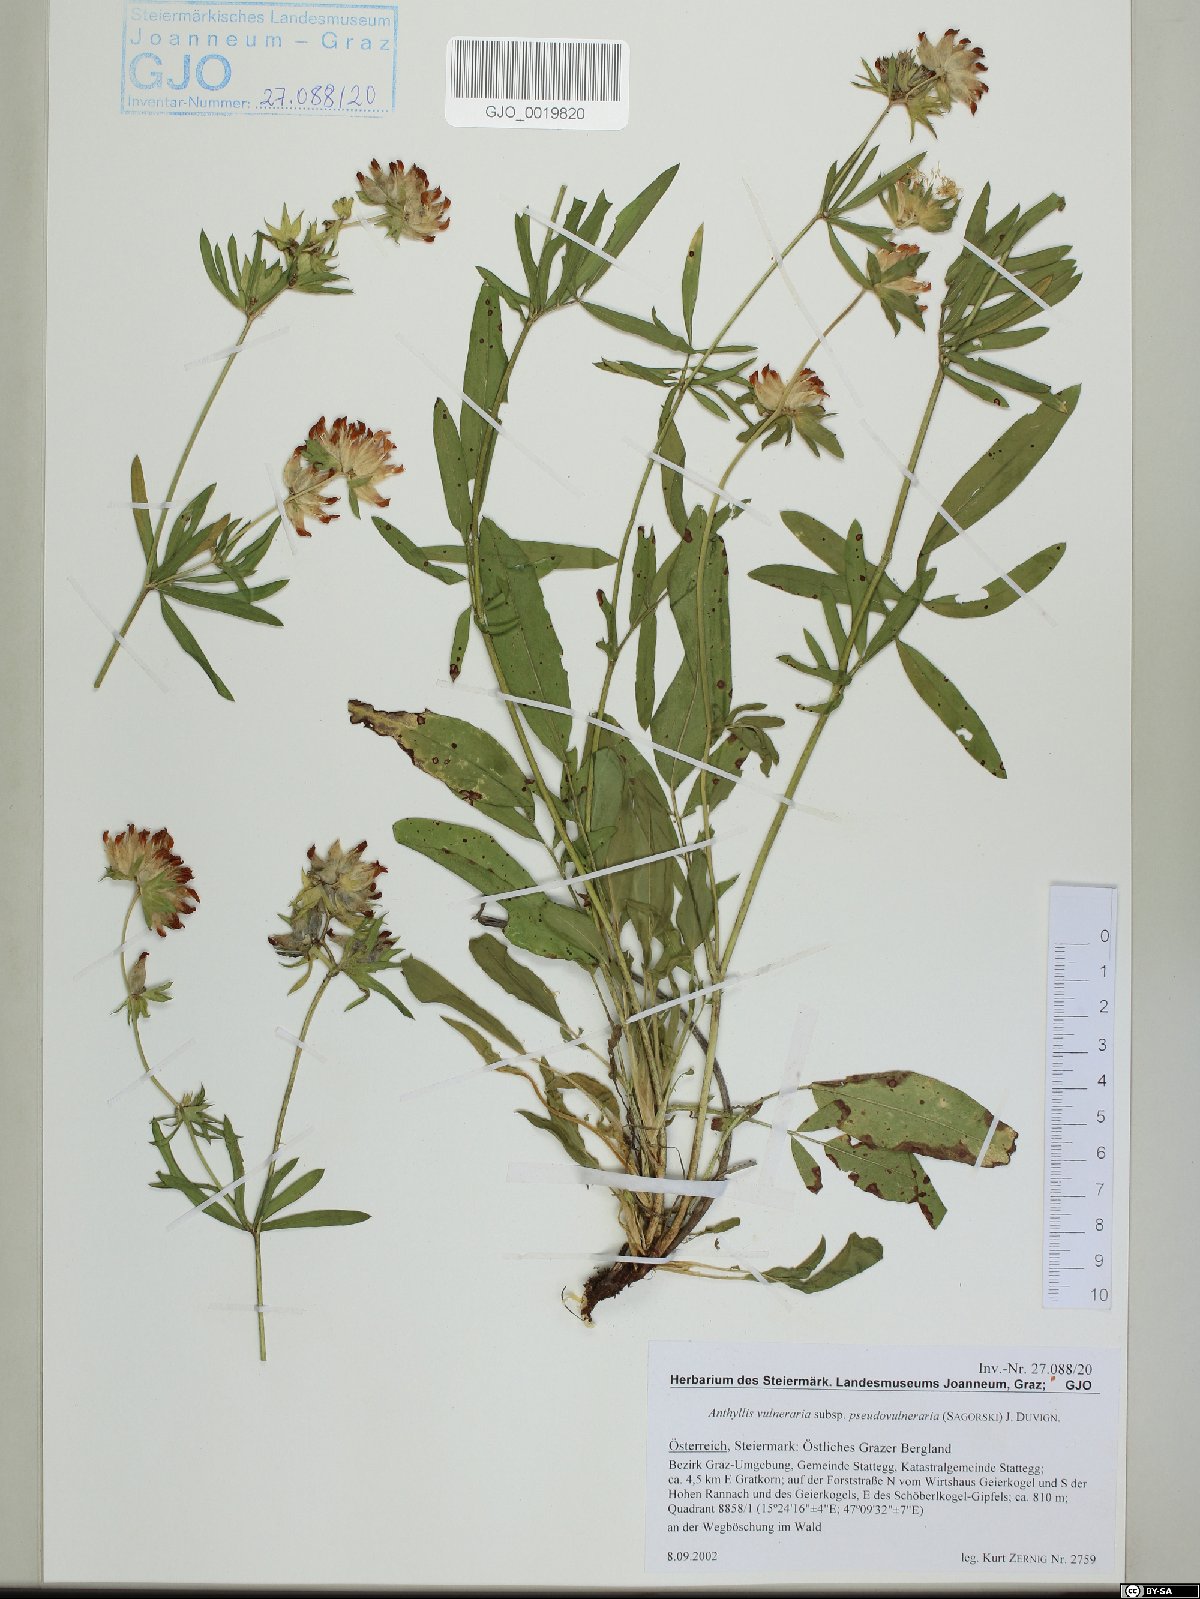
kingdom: Plantae
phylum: Tracheophyta
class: Magnoliopsida
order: Fabales
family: Fabaceae
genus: Anthyllis
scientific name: Anthyllis vulneraria
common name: Kidney vetch
